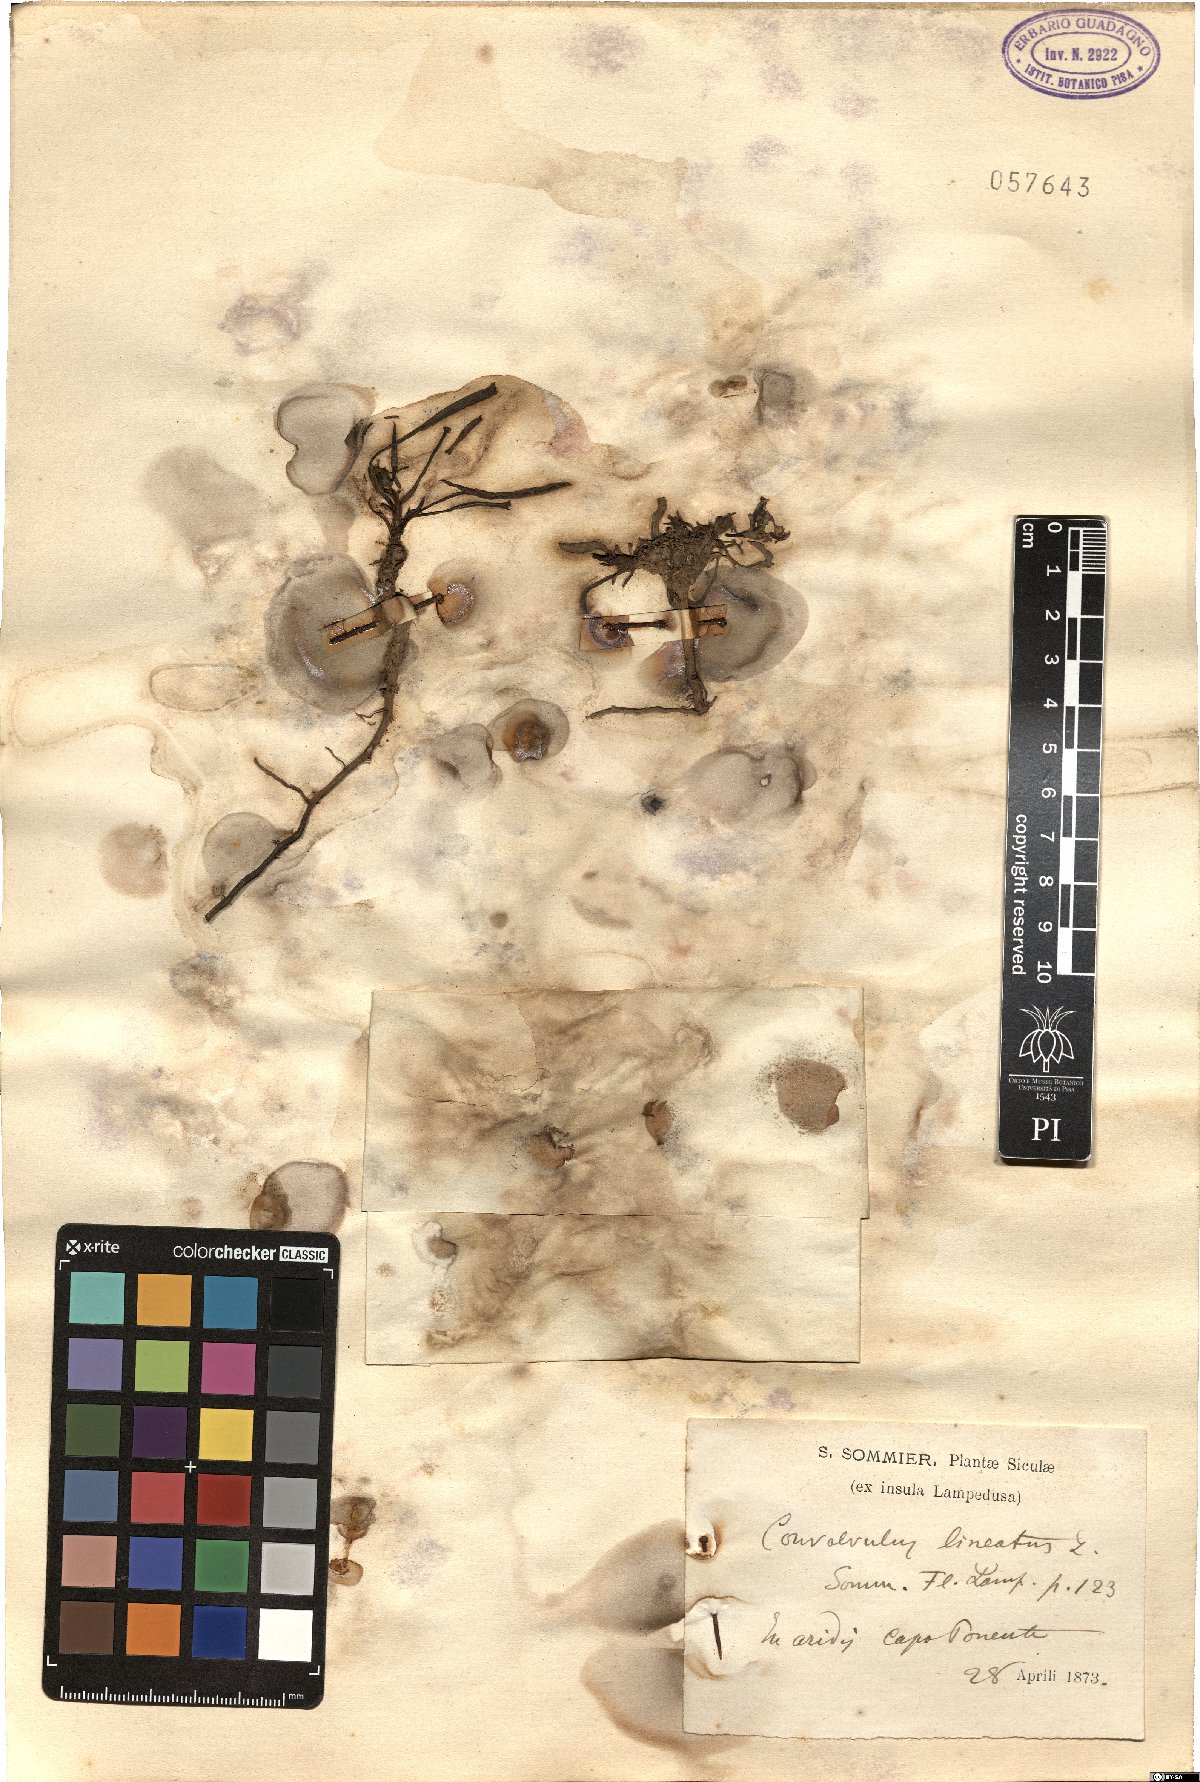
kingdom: Plantae
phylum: Tracheophyta
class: Magnoliopsida
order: Solanales
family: Convolvulaceae
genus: Convolvulus
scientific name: Convolvulus lineatus
